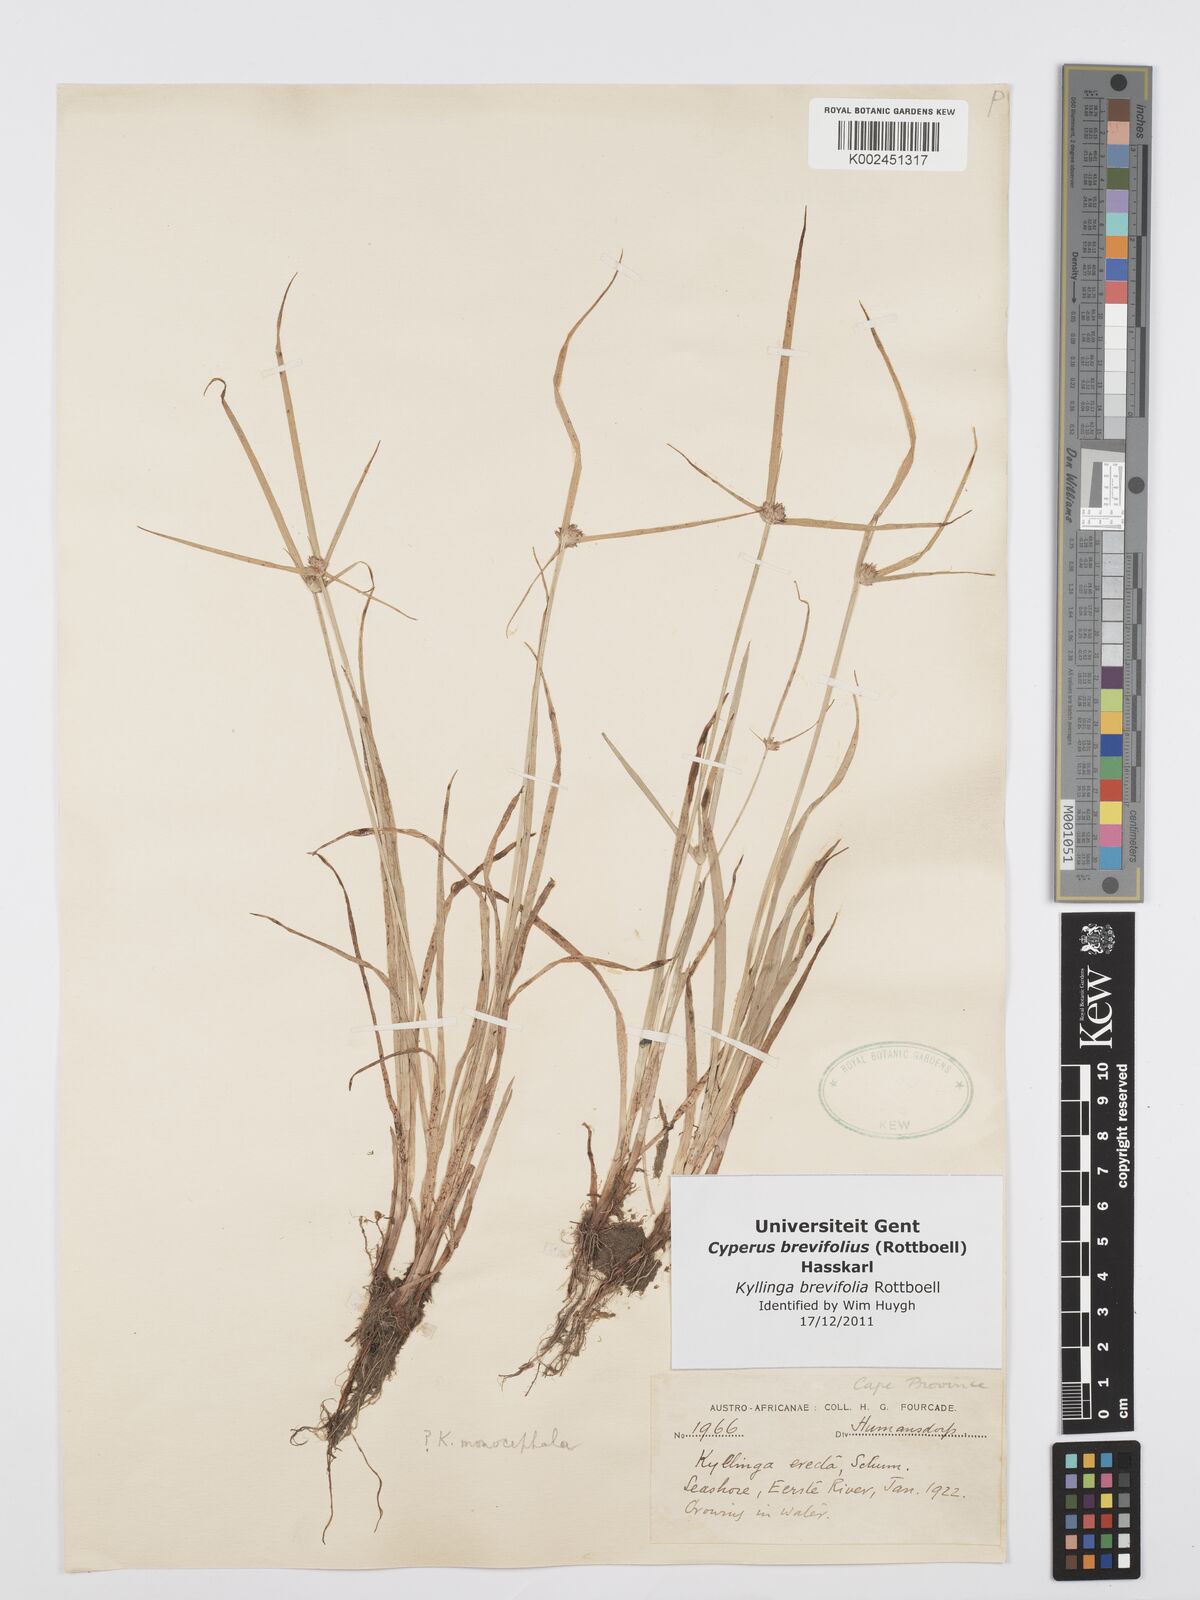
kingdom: Plantae
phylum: Tracheophyta
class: Liliopsida
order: Poales
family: Cyperaceae
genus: Cyperus
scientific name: Cyperus brevifolius
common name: Globe kyllinga
